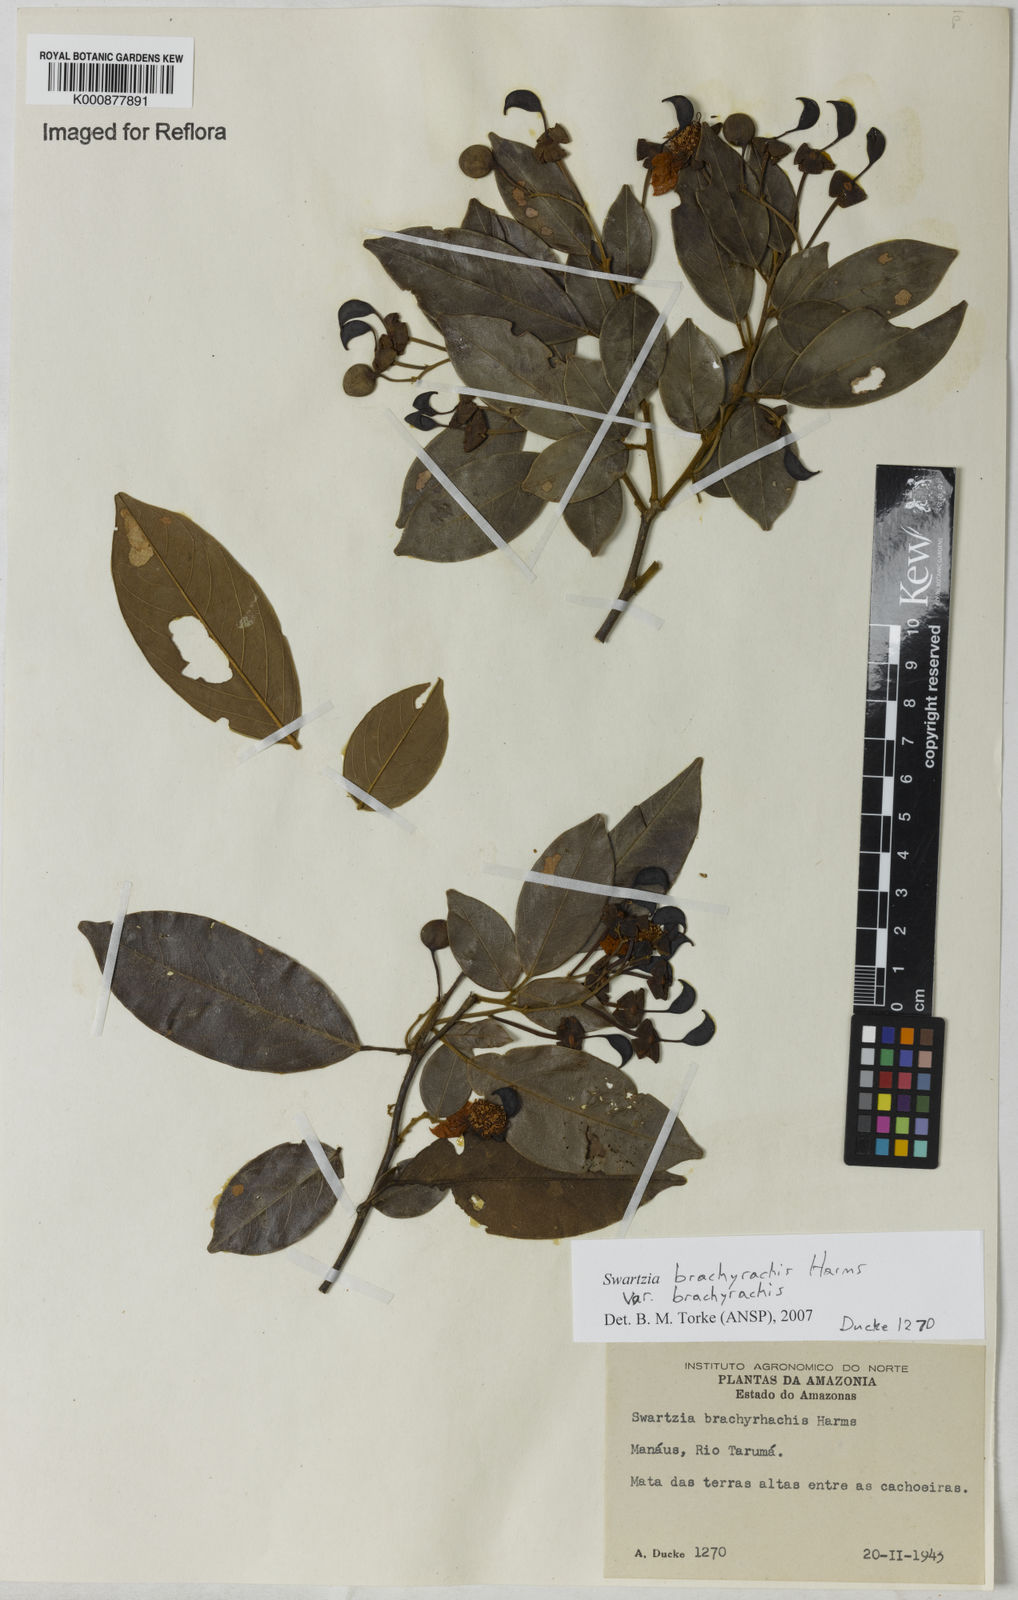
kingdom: Plantae
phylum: Tracheophyta
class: Magnoliopsida
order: Fabales
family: Fabaceae
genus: Swartzia
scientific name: Swartzia
